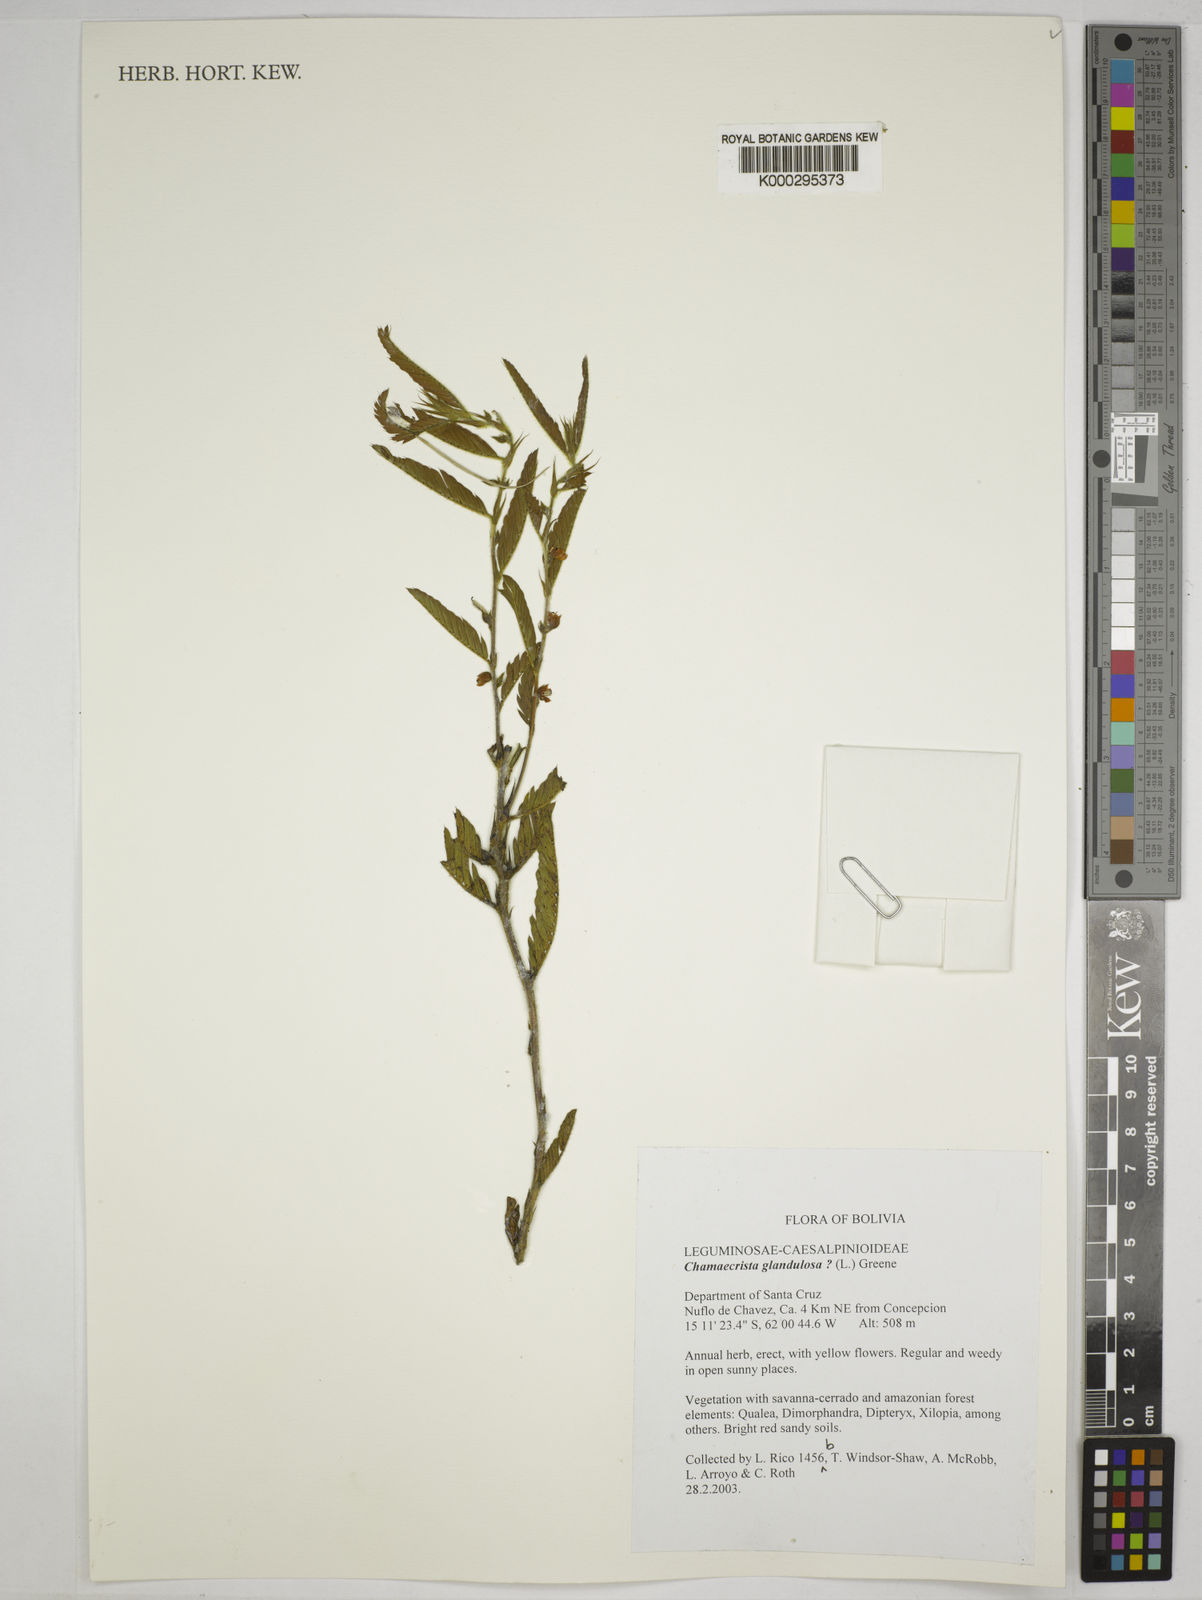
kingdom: Plantae
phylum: Tracheophyta
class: Magnoliopsida
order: Fabales
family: Fabaceae
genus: Chamaecrista
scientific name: Chamaecrista glandulosa
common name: Wild peas
